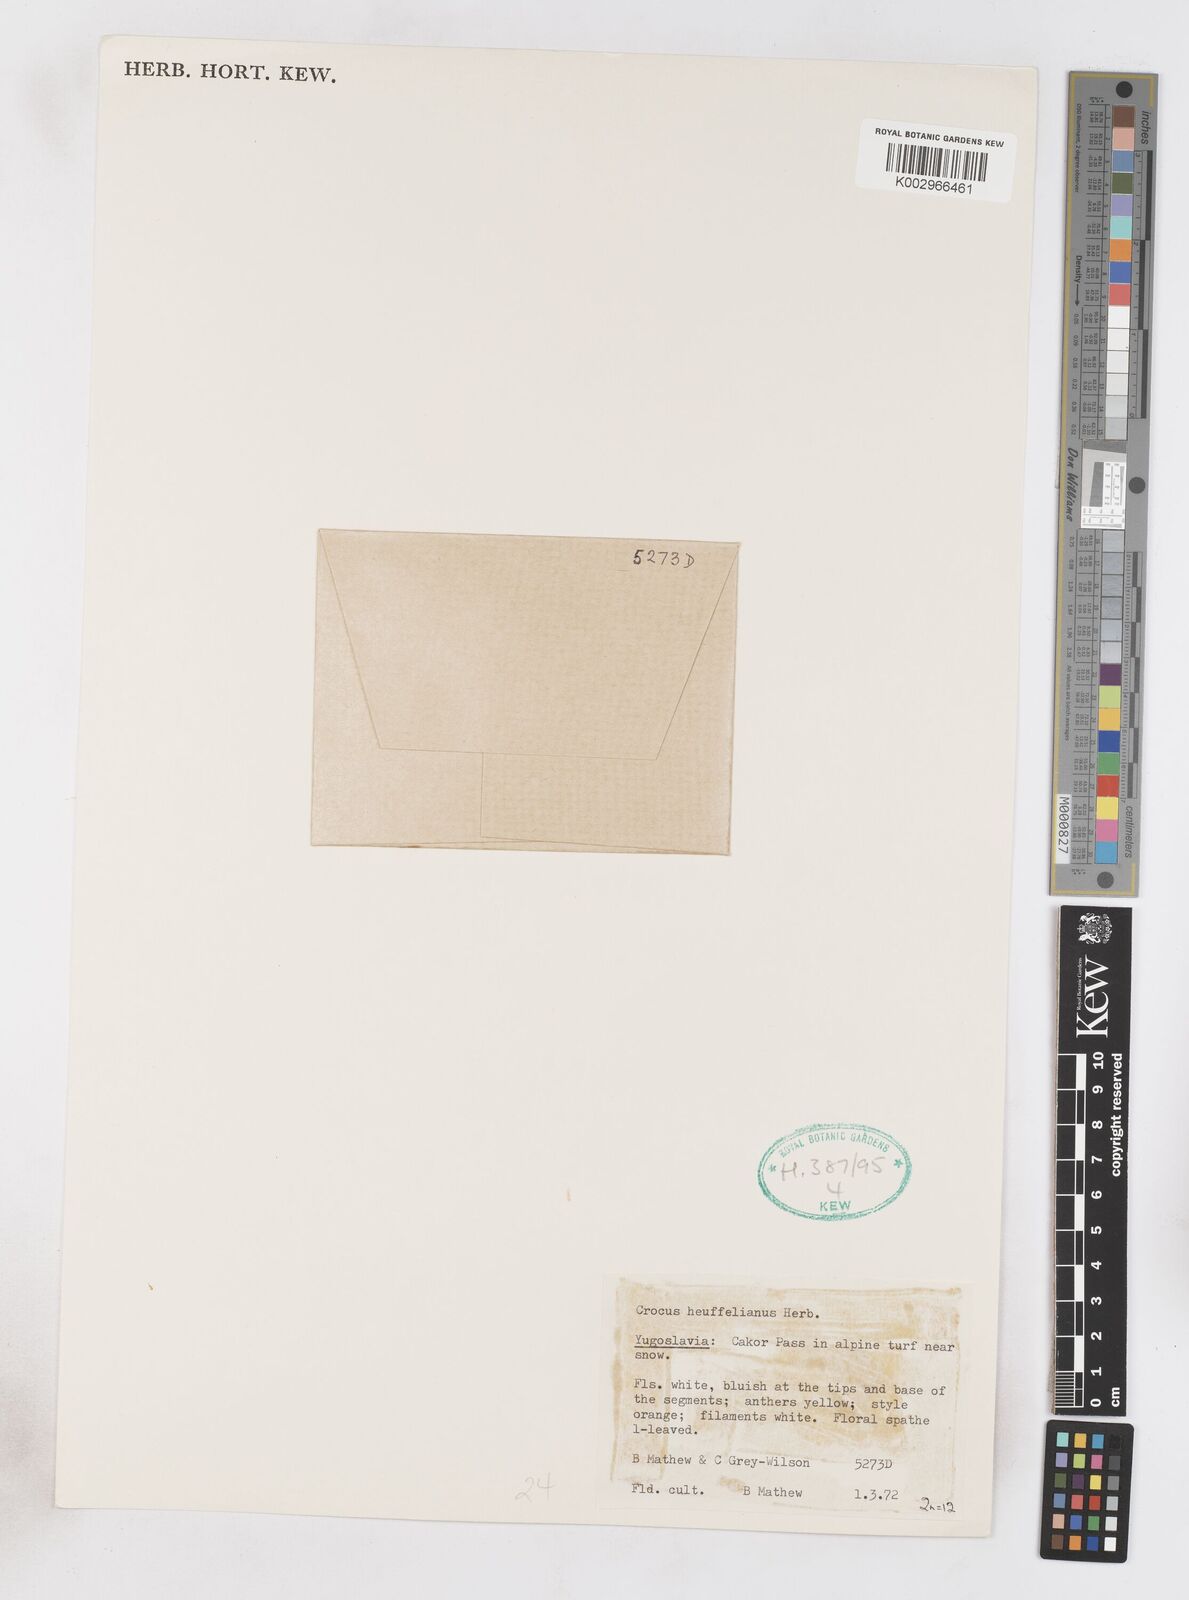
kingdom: Plantae
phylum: Tracheophyta
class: Liliopsida
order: Asparagales
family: Iridaceae
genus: Crocus
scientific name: Crocus vernus
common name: Spring crocus
